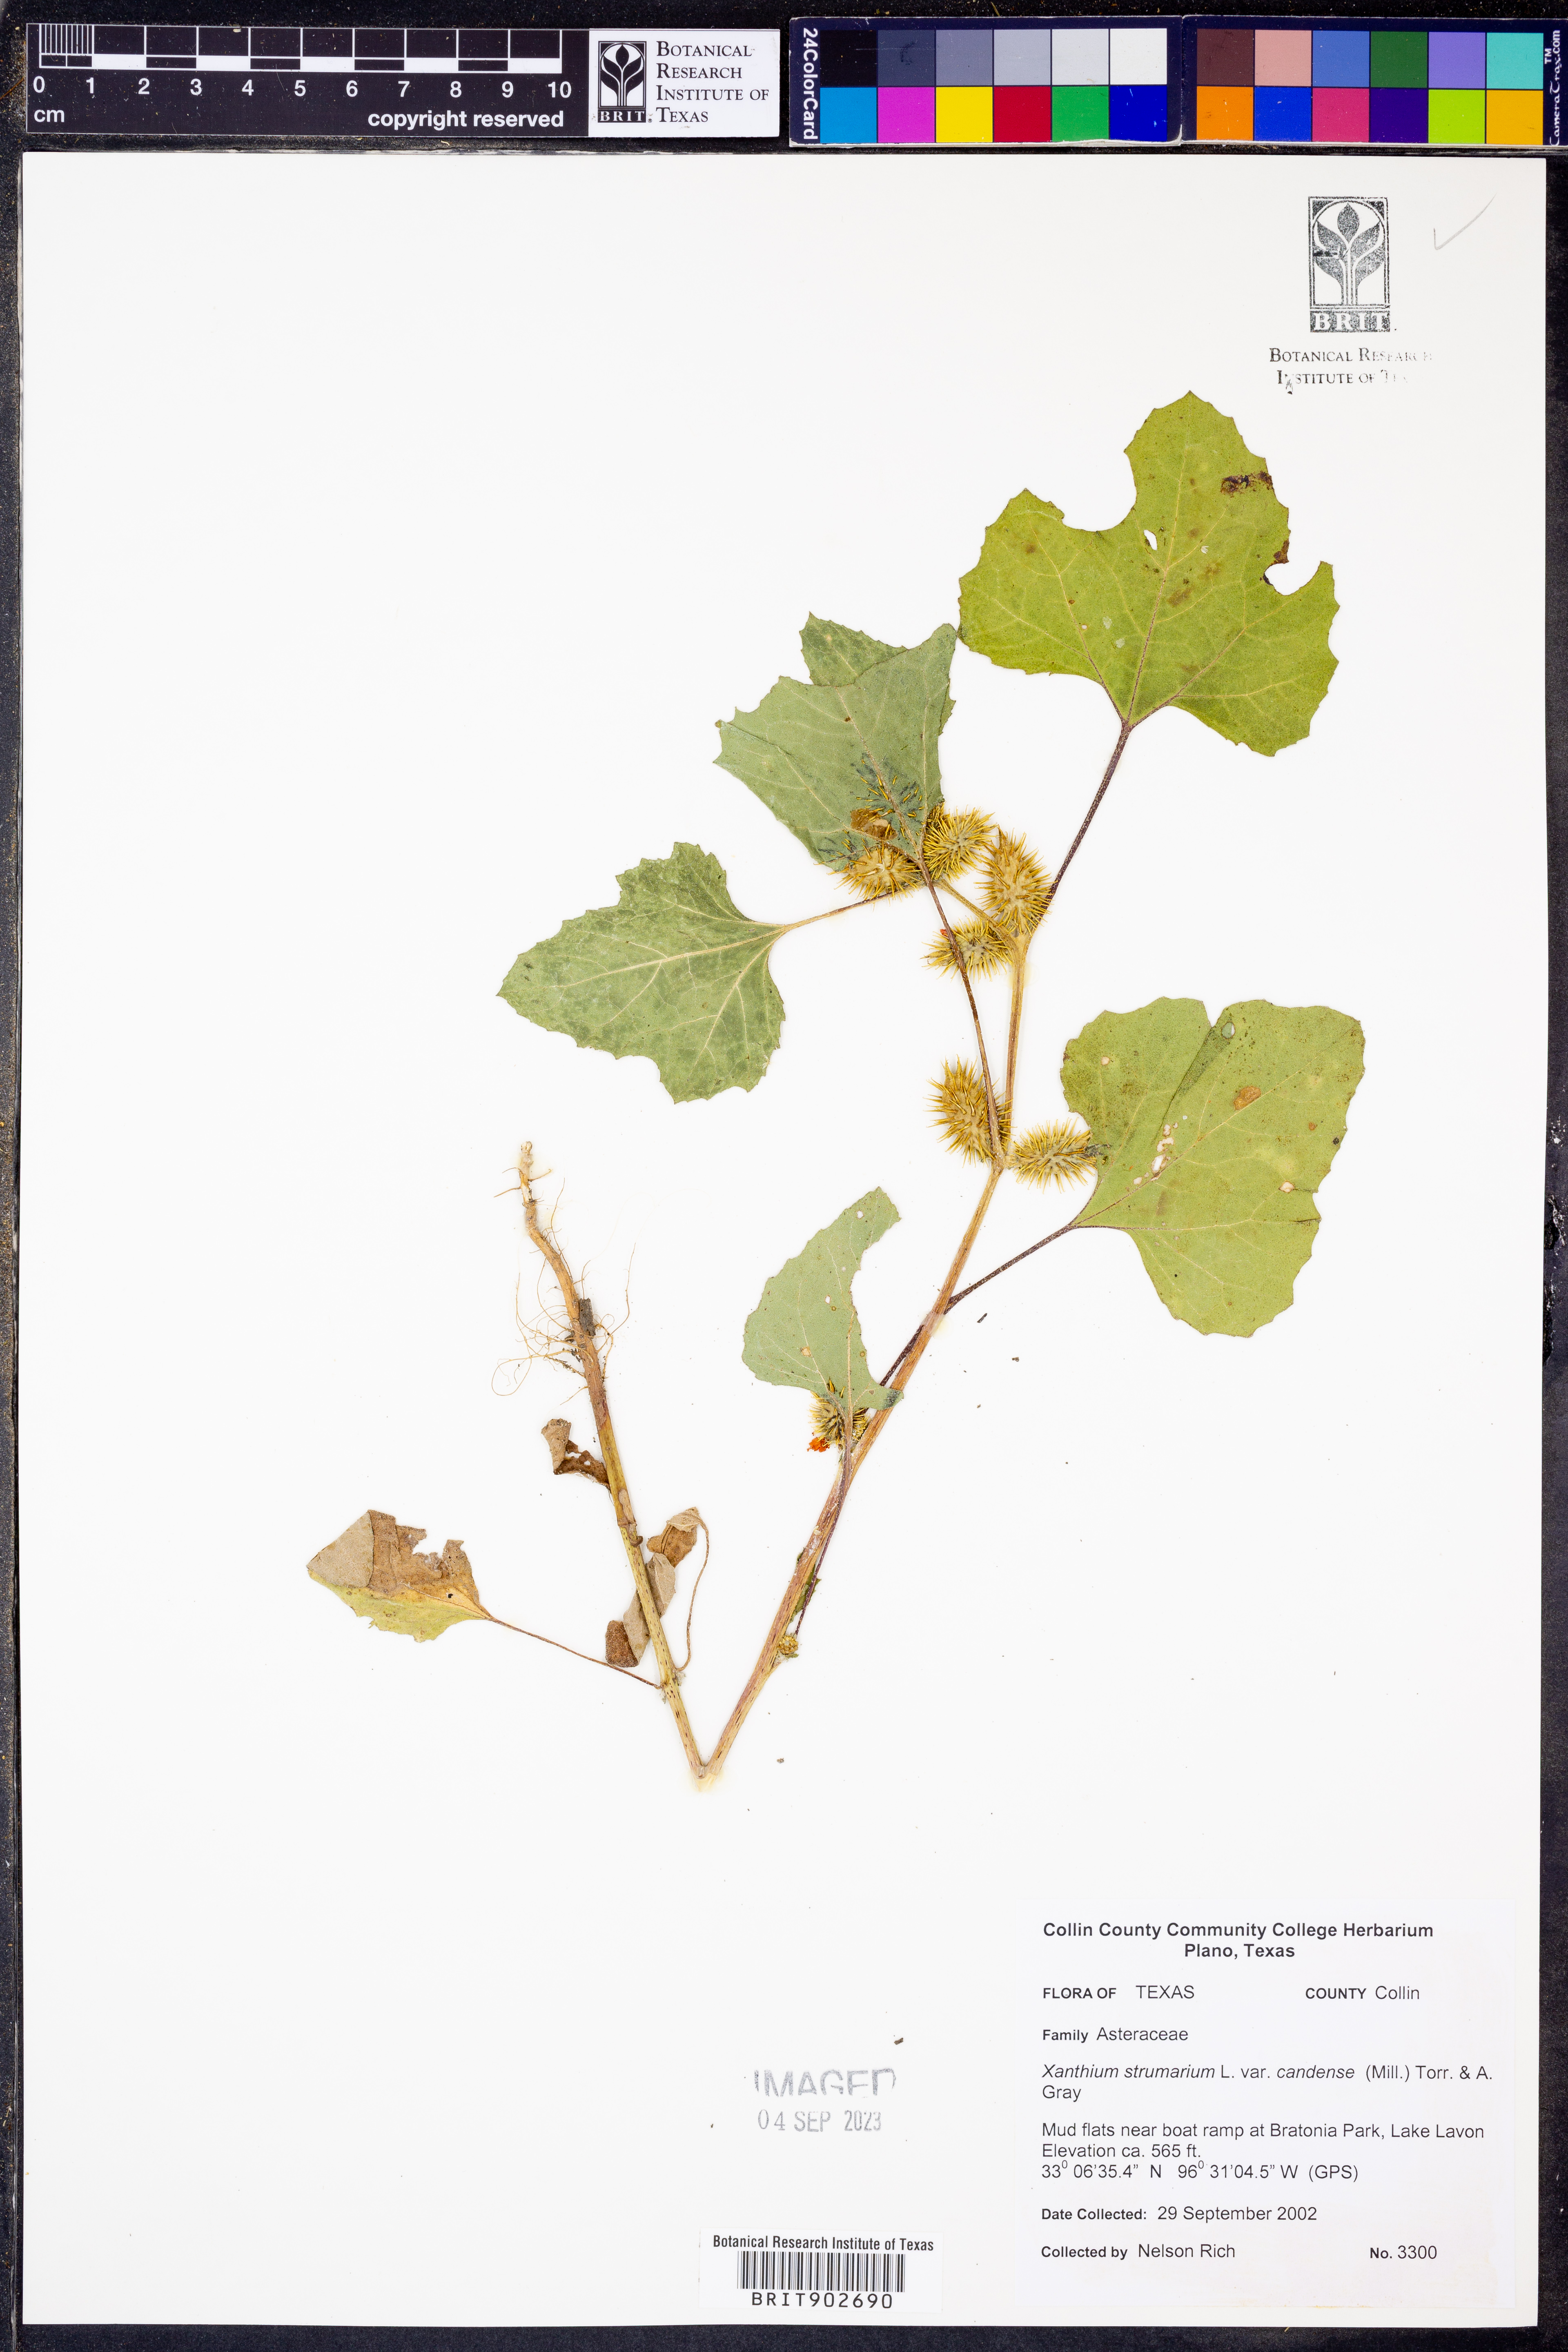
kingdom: Plantae
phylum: Tracheophyta
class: Magnoliopsida
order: Asterales
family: Asteraceae
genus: Xanthium
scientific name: Xanthium orientale
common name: Californian burr
